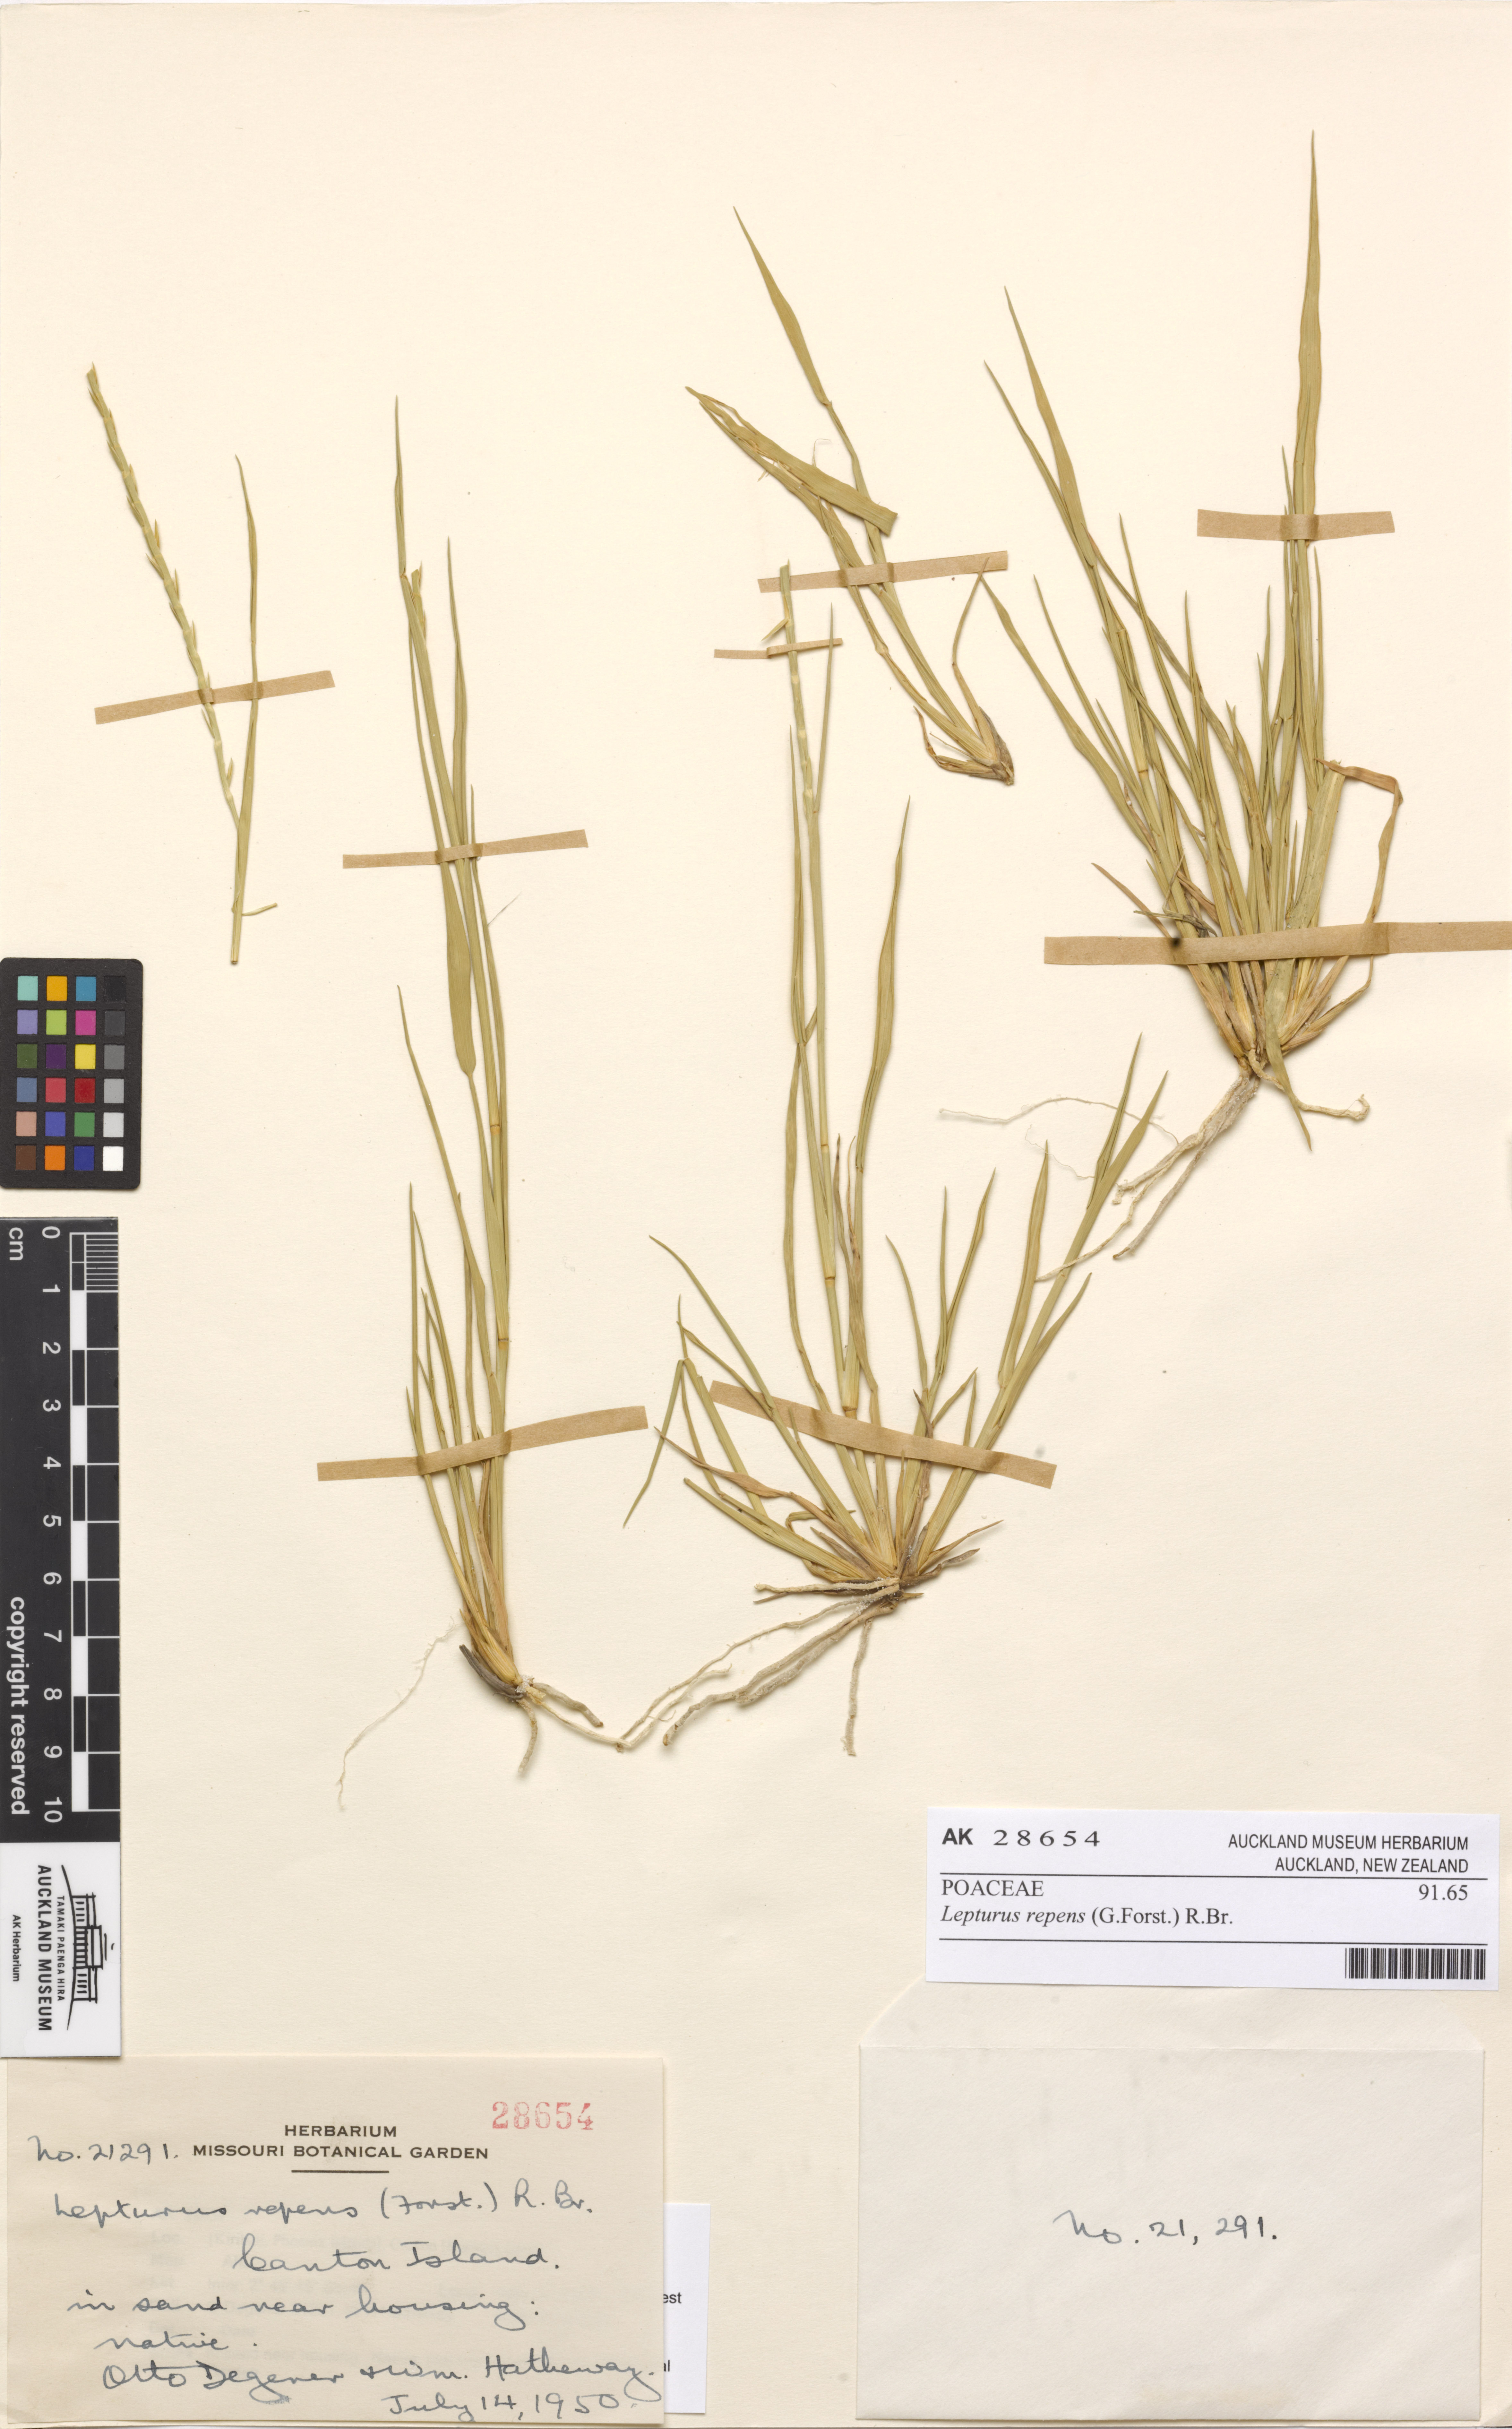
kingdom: Plantae
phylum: Tracheophyta
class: Liliopsida
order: Poales
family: Poaceae
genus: Lepturus
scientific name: Lepturus repens
